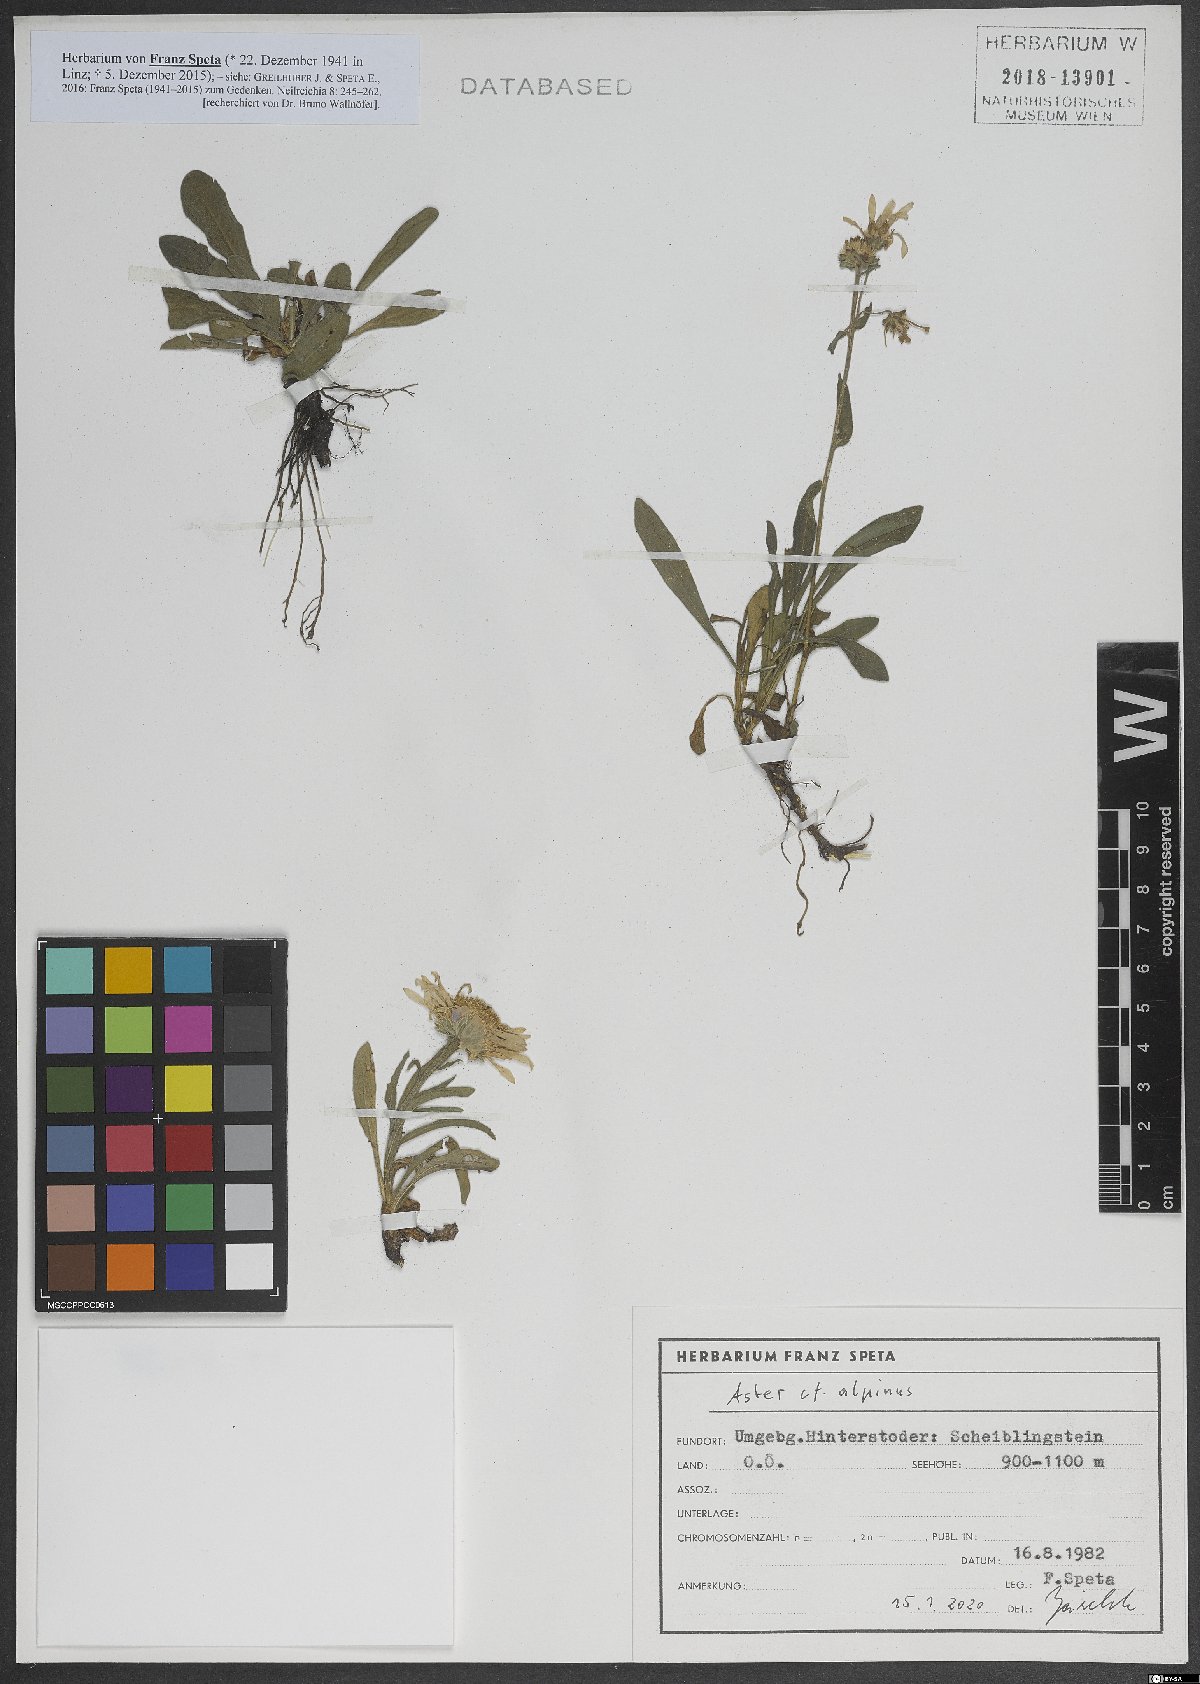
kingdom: Plantae
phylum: Tracheophyta
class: Magnoliopsida
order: Asterales
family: Asteraceae
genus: Aster
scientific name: Aster alpinus
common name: Alpine aster
